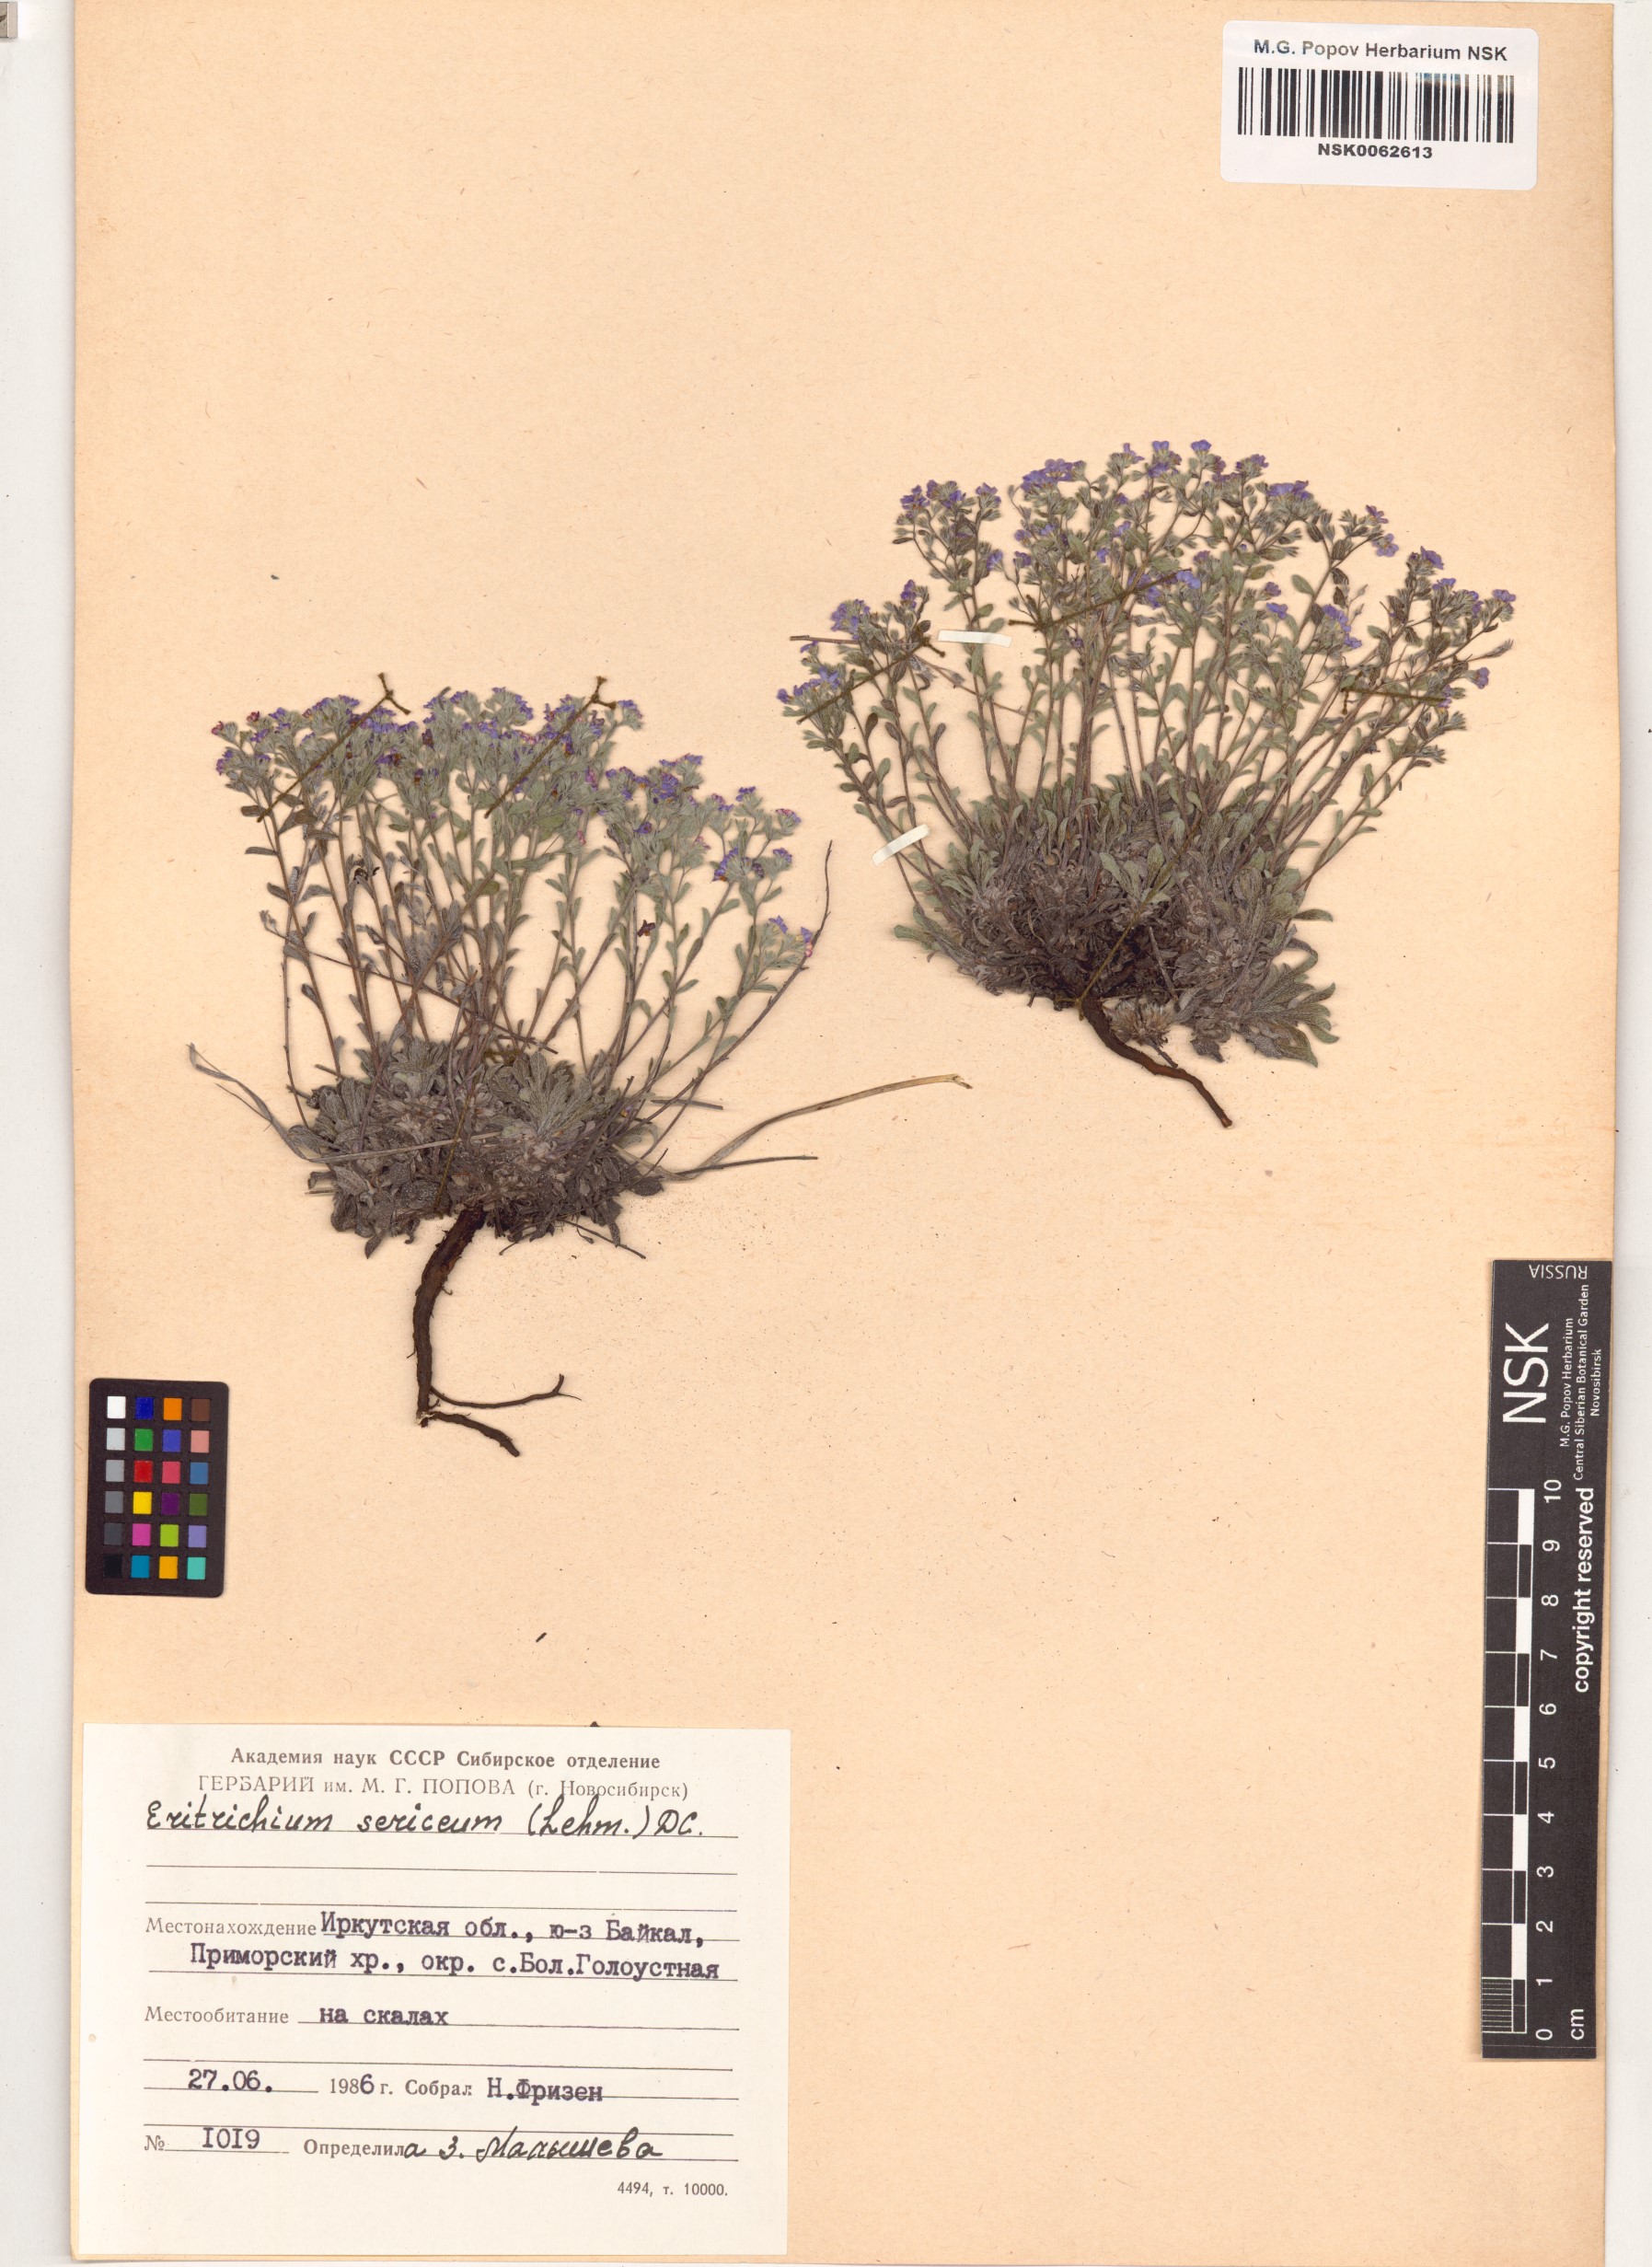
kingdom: Plantae
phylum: Tracheophyta
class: Magnoliopsida
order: Boraginales
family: Boraginaceae
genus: Eritrichium
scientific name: Eritrichium sericeum
